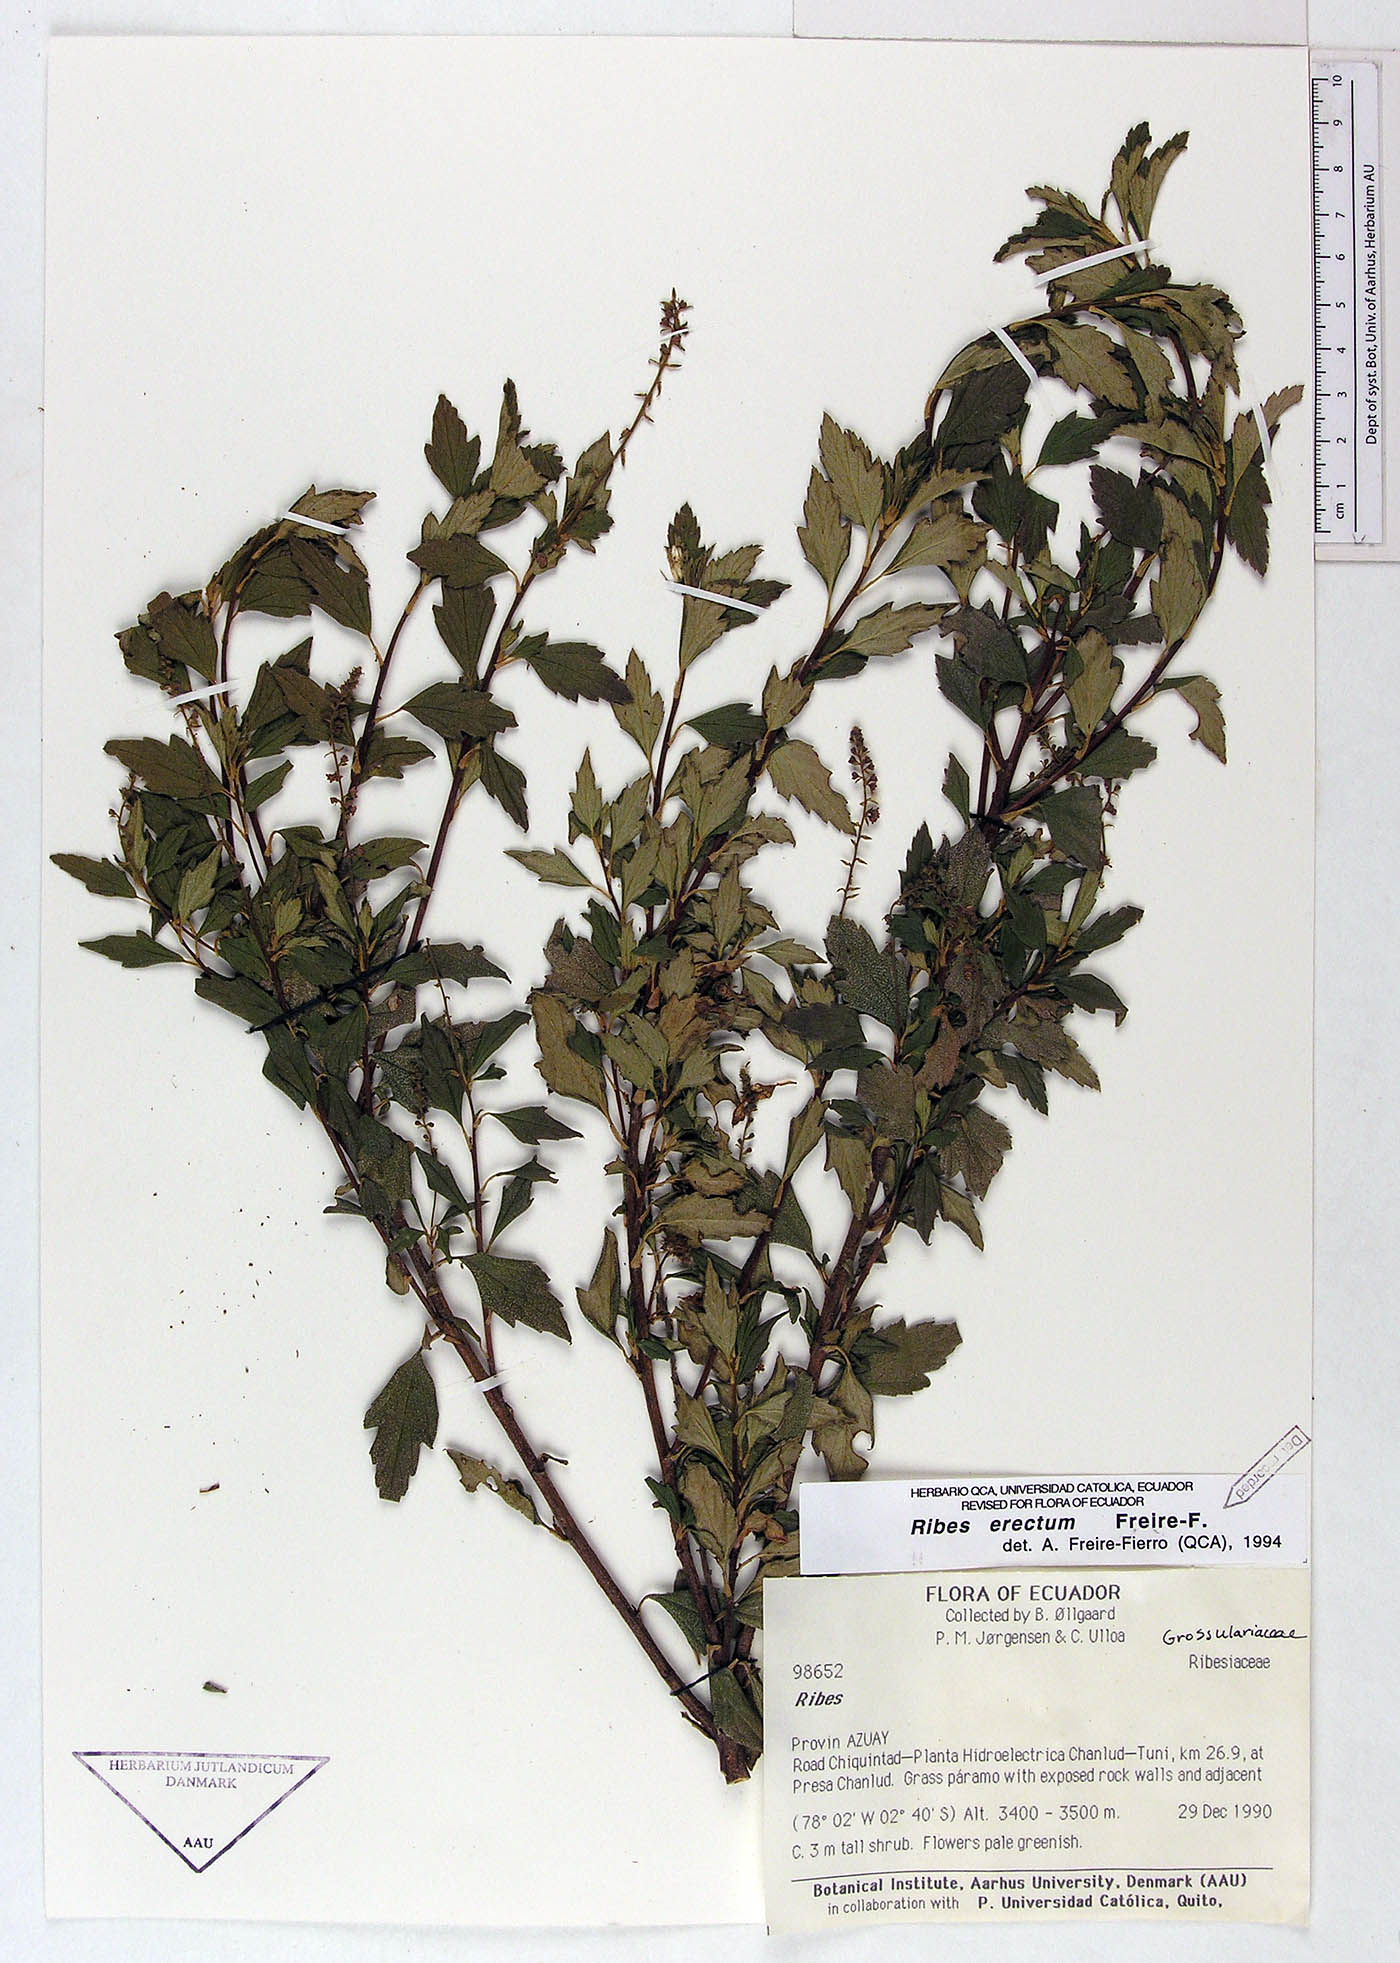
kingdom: Plantae
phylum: Tracheophyta
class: Magnoliopsida
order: Saxifragales
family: Grossulariaceae
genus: Ribes
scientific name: Ribes erectum
